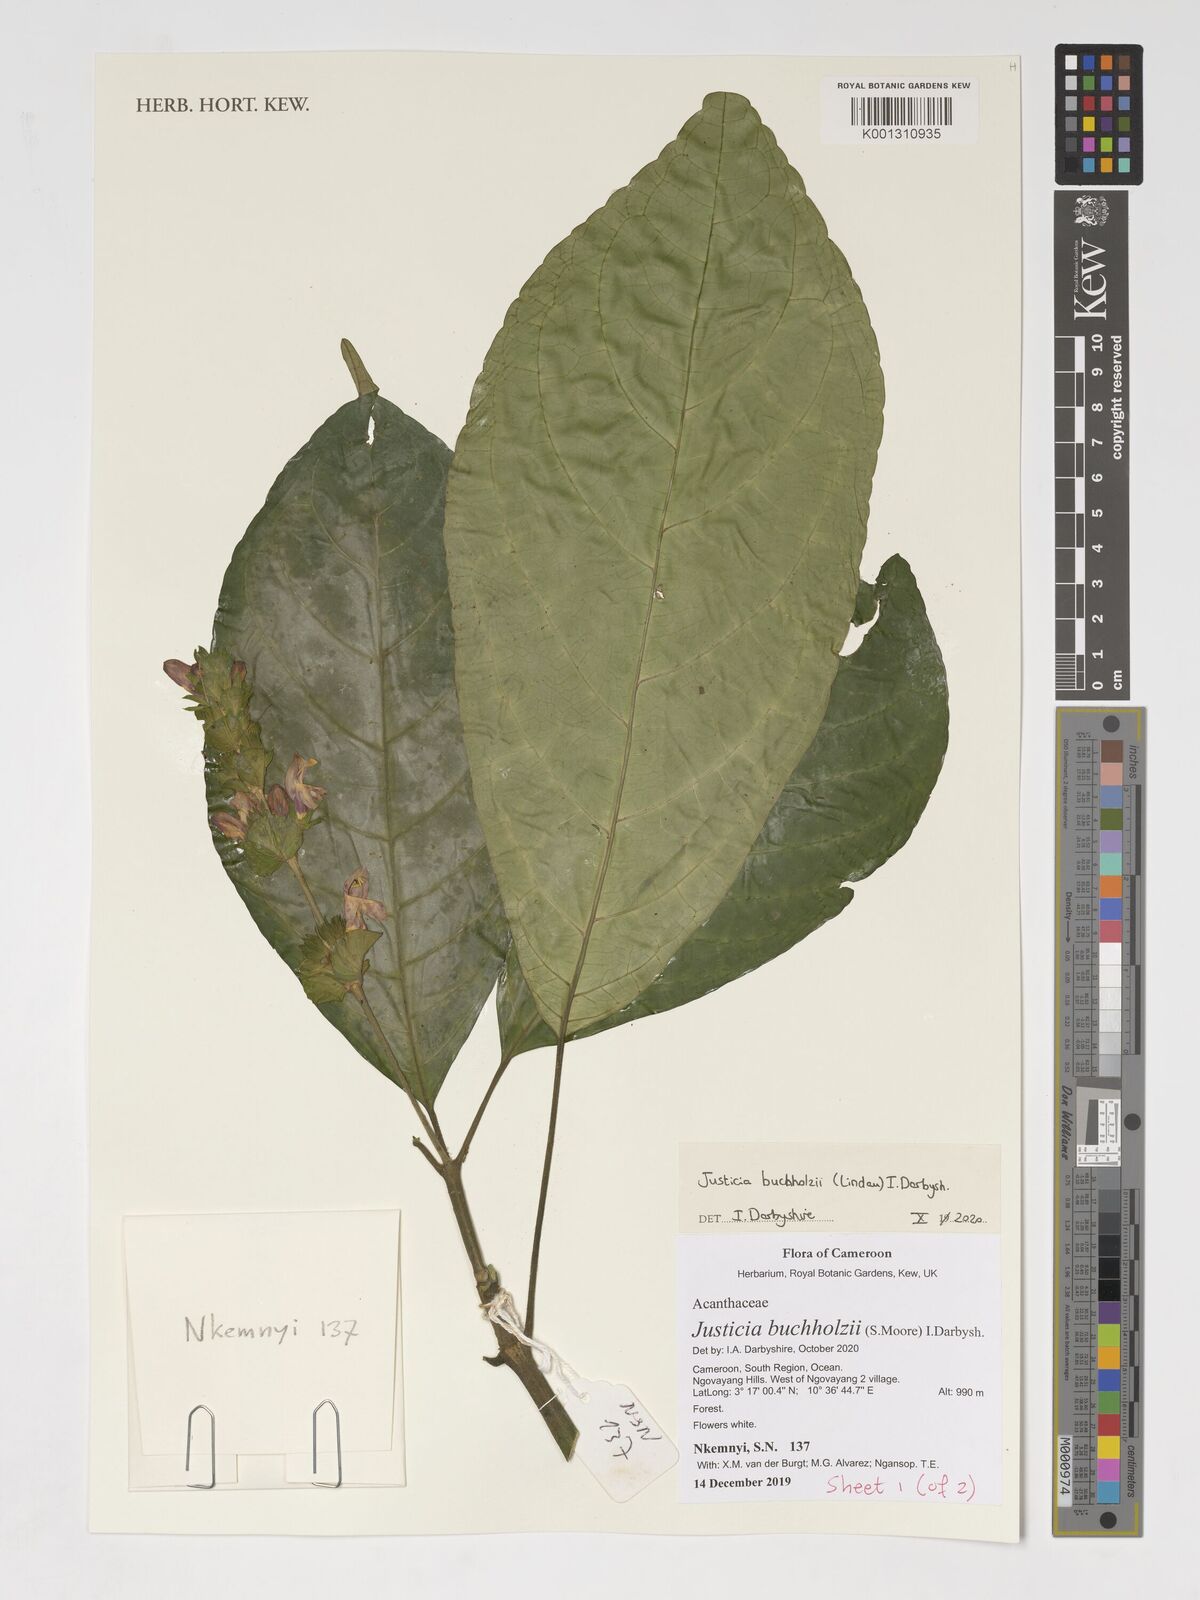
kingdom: Plantae
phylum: Tracheophyta
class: Magnoliopsida
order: Lamiales
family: Acanthaceae
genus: Justicia
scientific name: Justicia buchholzii
